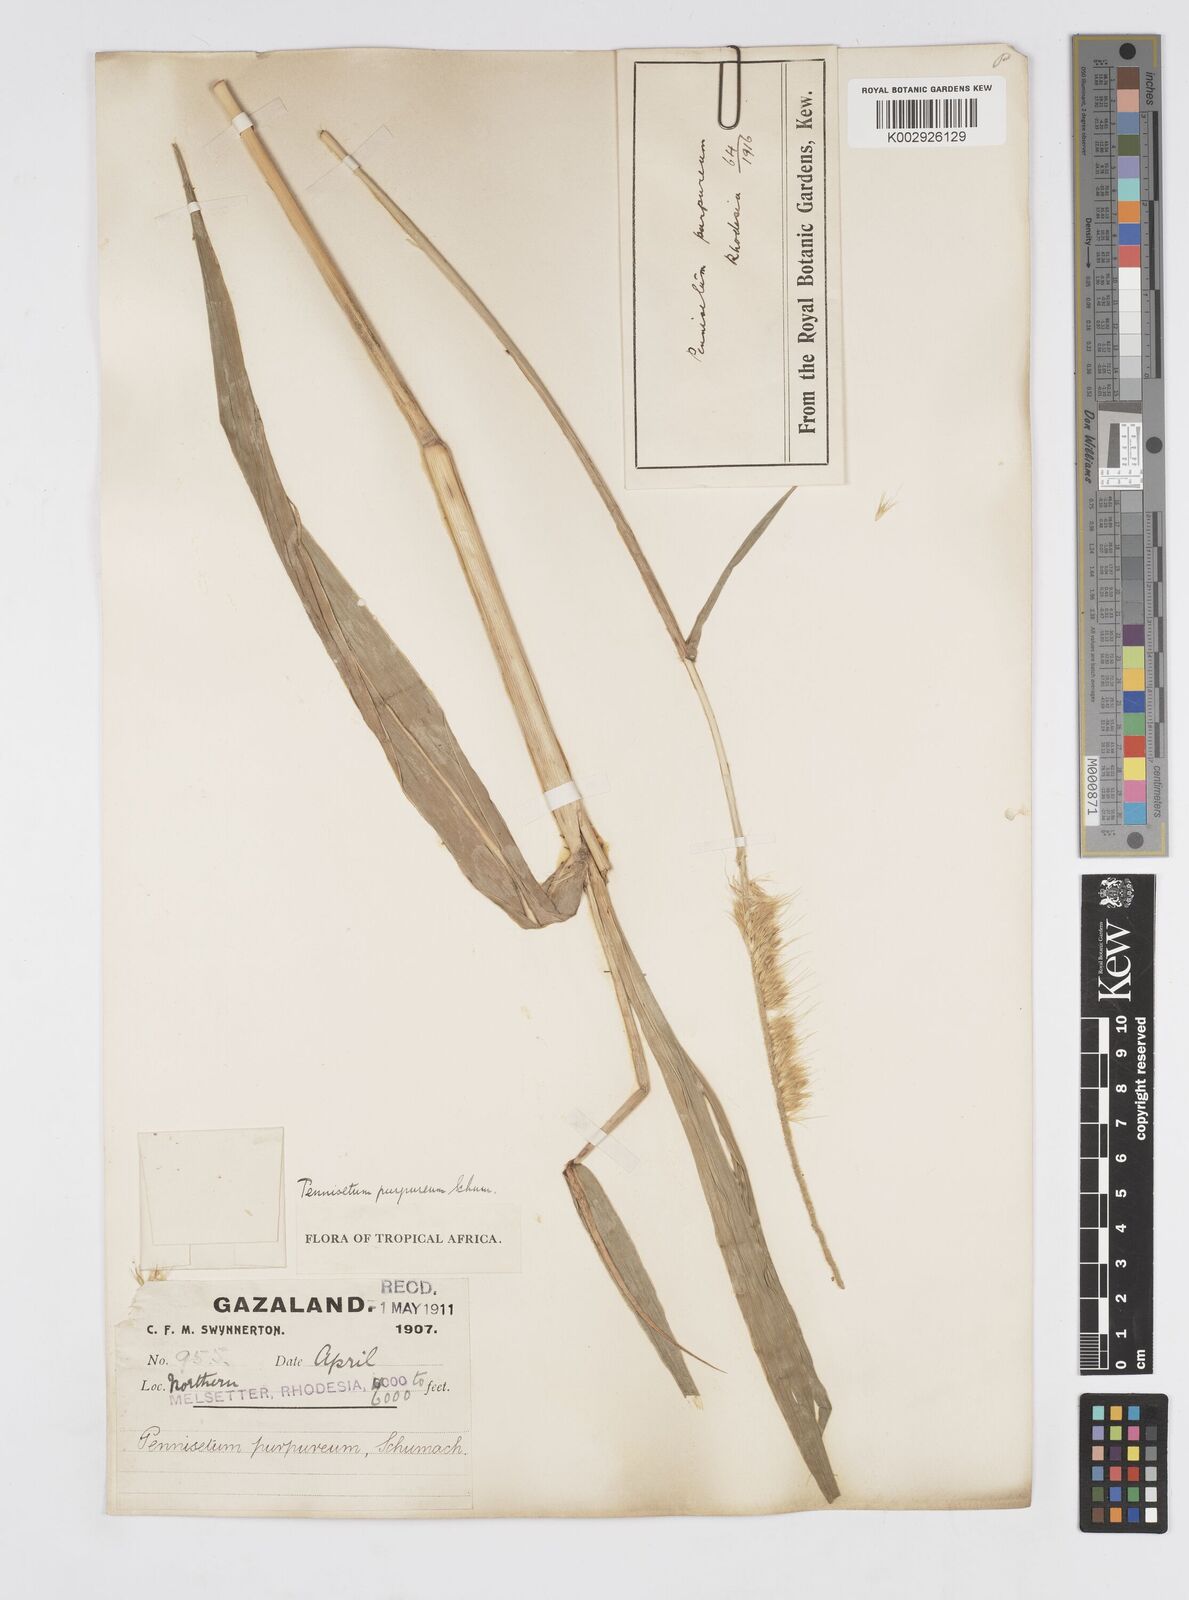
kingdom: Plantae
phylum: Tracheophyta
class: Liliopsida
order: Poales
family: Poaceae
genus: Cenchrus
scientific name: Cenchrus purpureus
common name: Elephant grass
